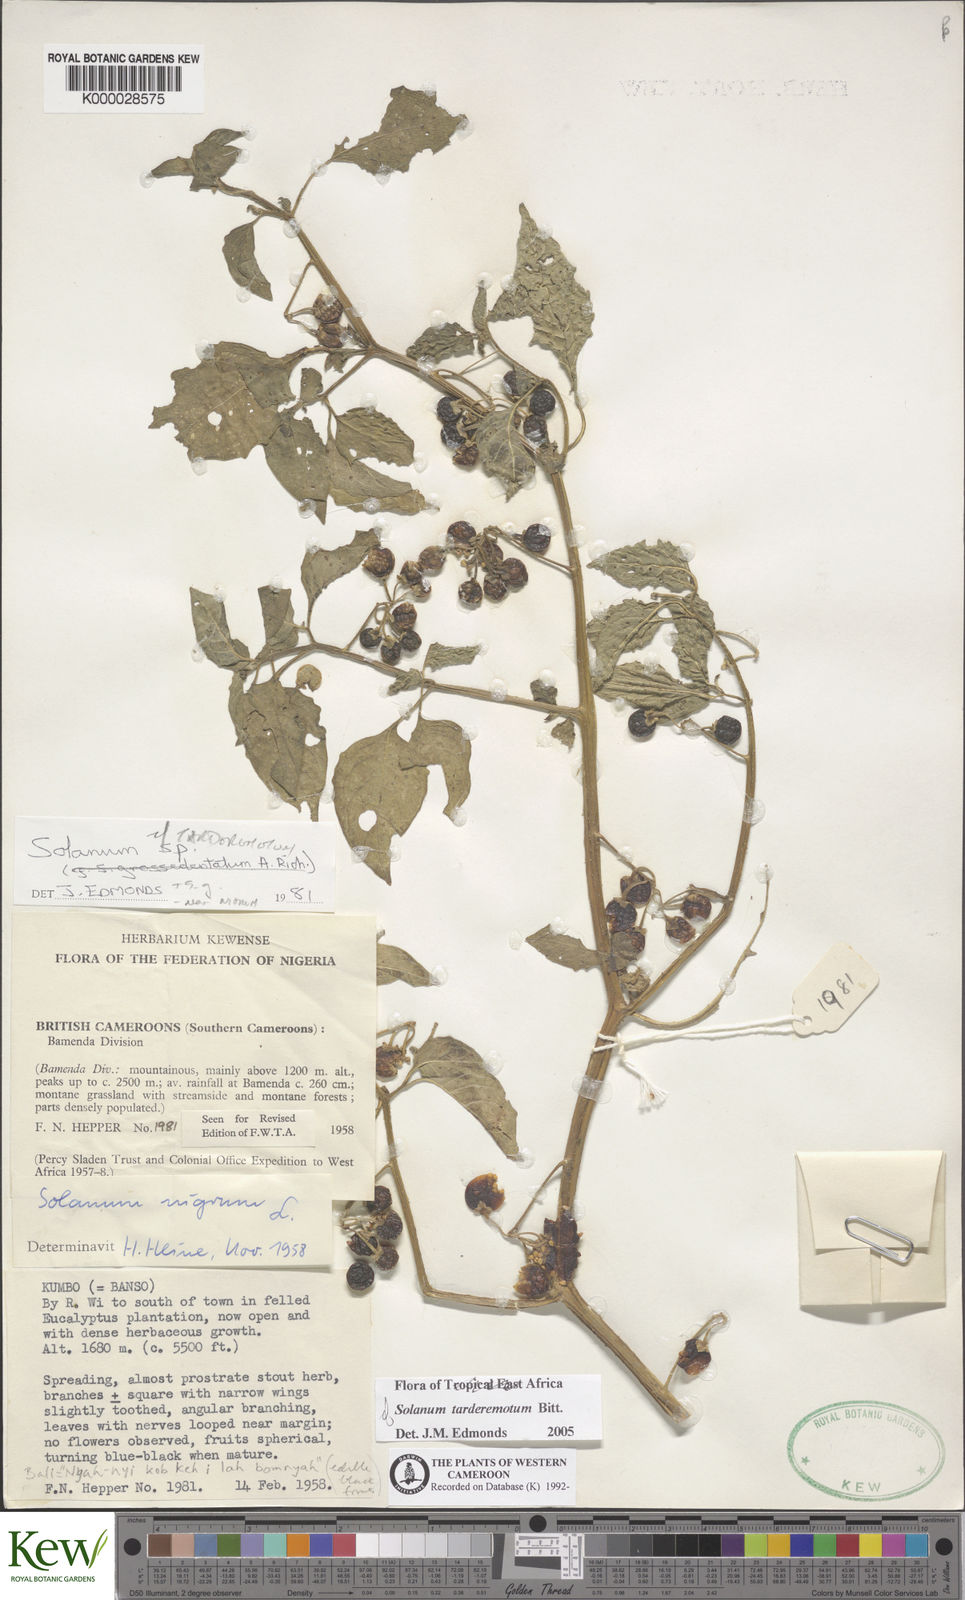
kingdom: Plantae
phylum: Tracheophyta
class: Magnoliopsida
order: Solanales
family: Solanaceae
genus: Solanum
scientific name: Solanum
